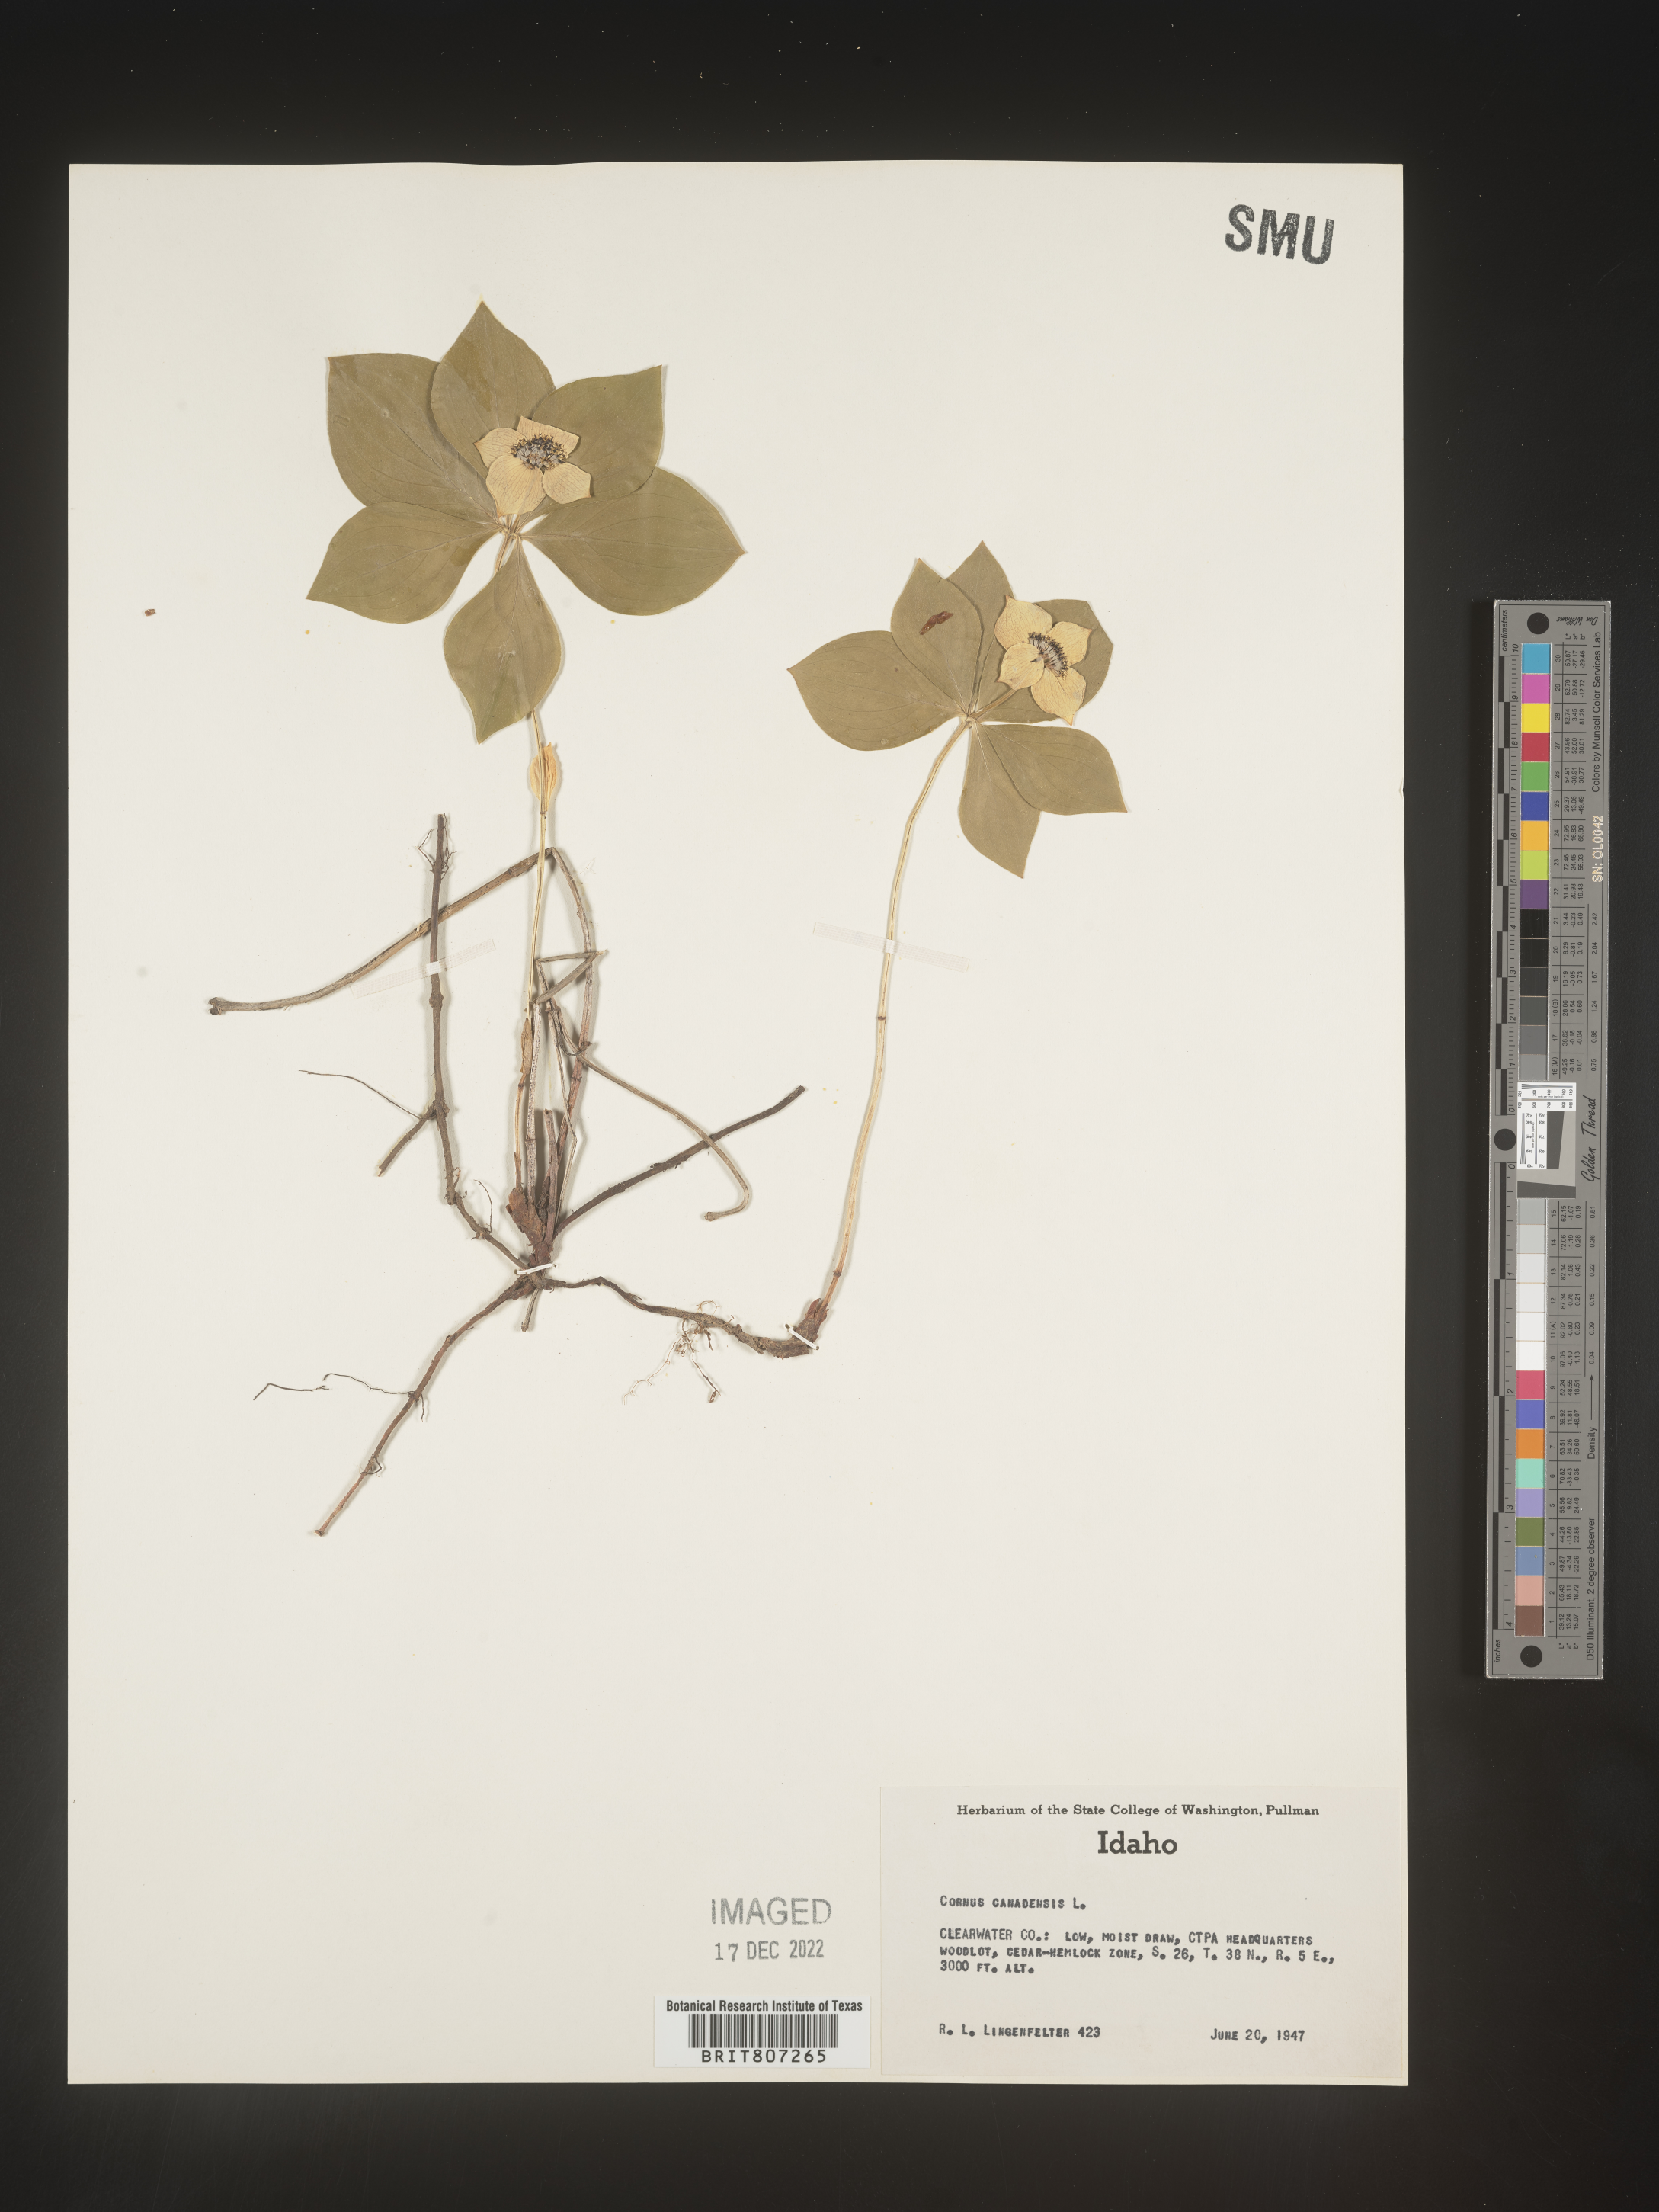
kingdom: Plantae
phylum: Tracheophyta
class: Magnoliopsida
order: Cornales
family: Cornaceae
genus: Cornus
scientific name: Cornus canadensis
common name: Creeping dogwood
